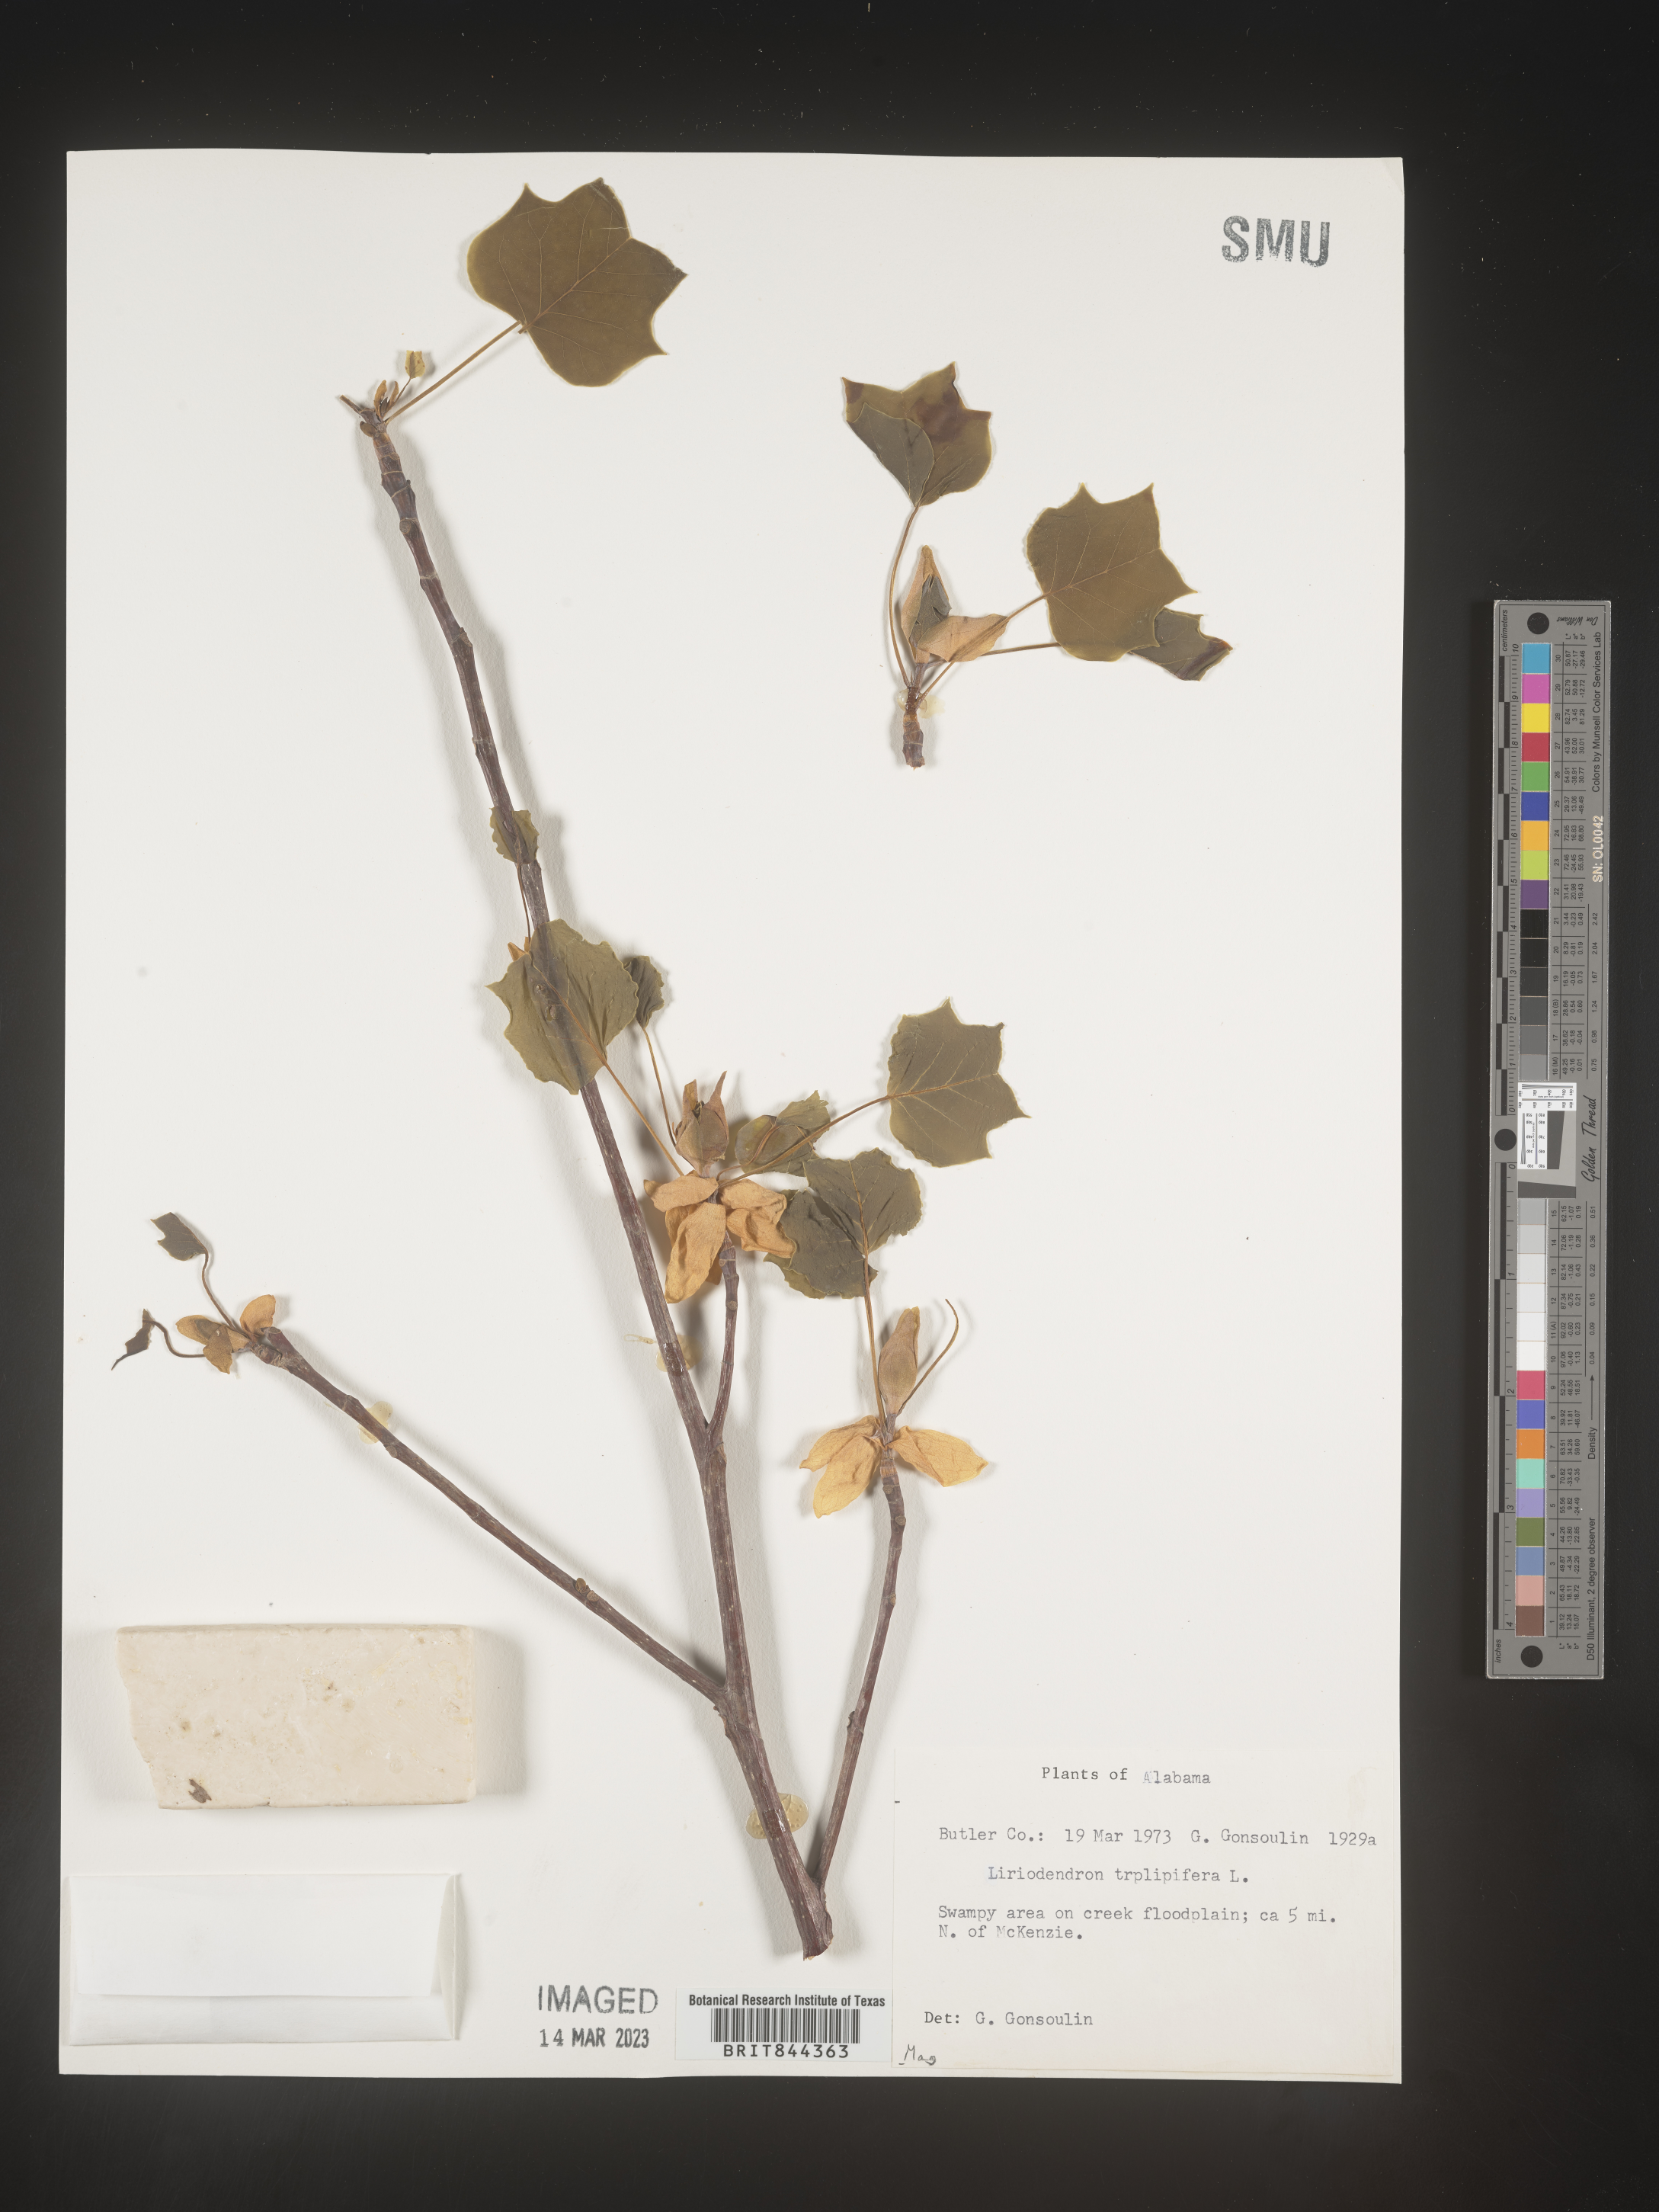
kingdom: Plantae
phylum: Tracheophyta
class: Magnoliopsida
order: Magnoliales
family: Magnoliaceae
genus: Liriodendron
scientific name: Liriodendron tulipifera
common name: Tulip tree
